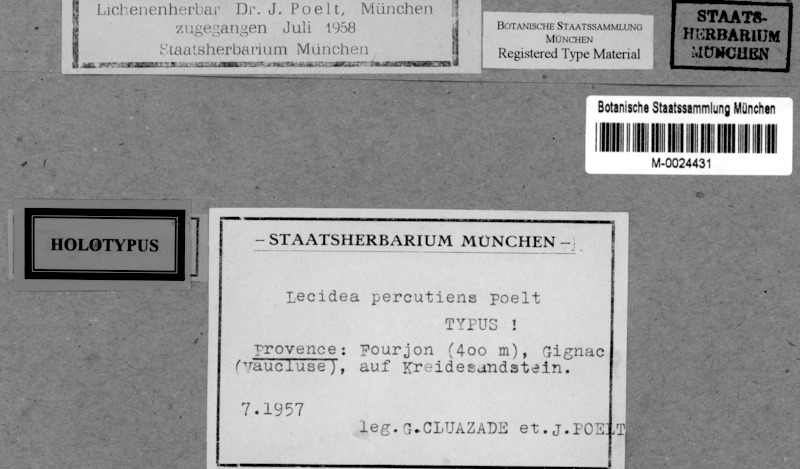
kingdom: Fungi
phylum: Ascomycota
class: Lecanoromycetes
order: Lecideales
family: Lecideaceae
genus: Lecidea
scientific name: Lecidea percutiens
